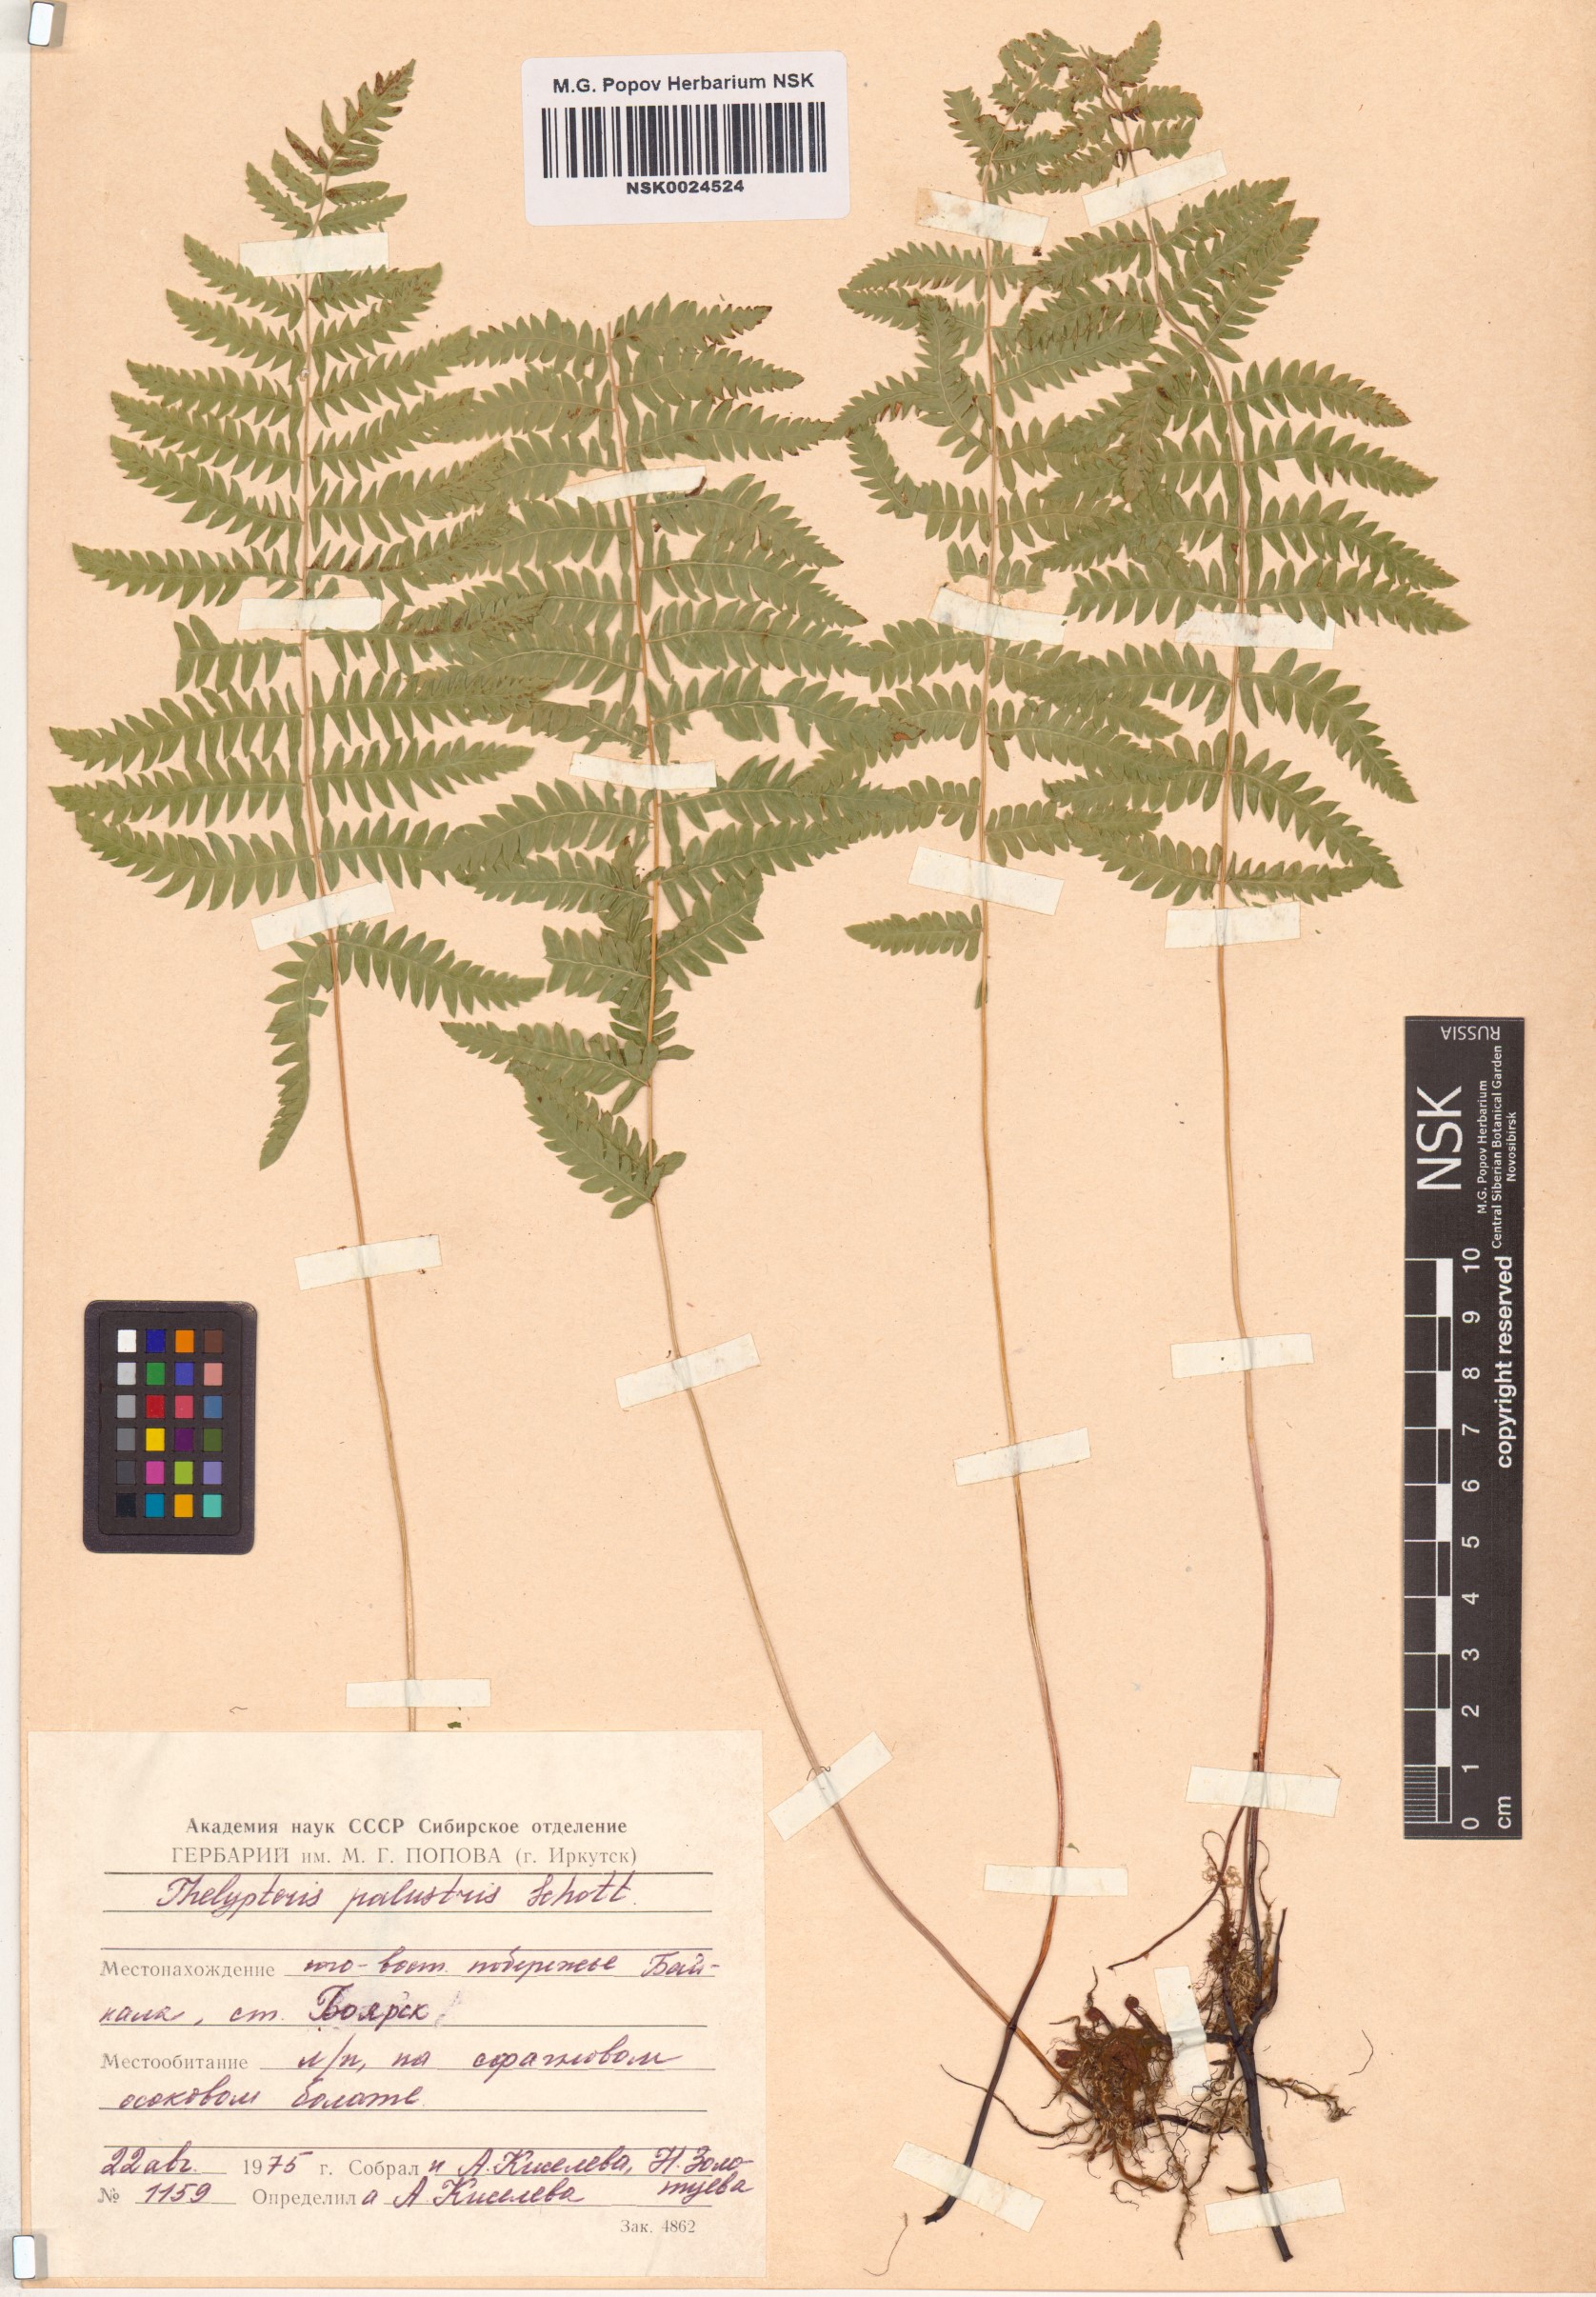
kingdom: Plantae
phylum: Tracheophyta
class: Polypodiopsida
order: Polypodiales
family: Thelypteridaceae
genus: Thelypteris
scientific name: Thelypteris palustris
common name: Marsh fern
